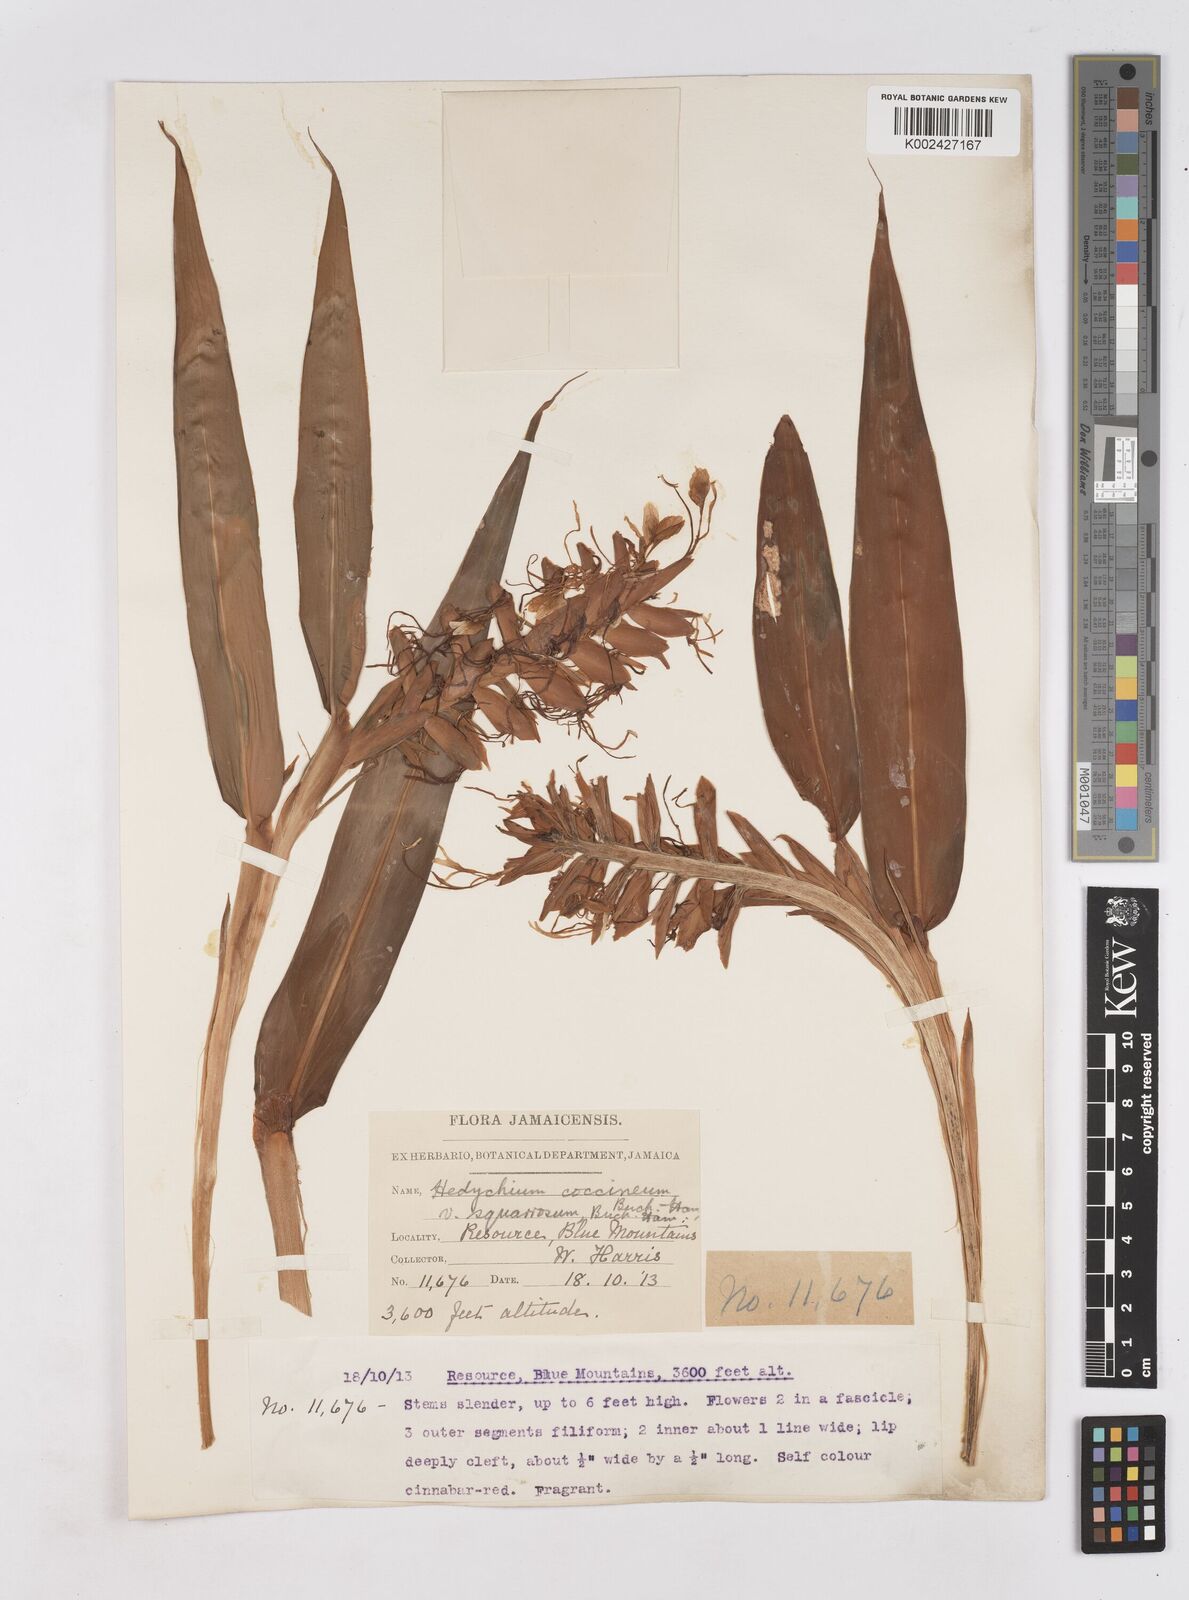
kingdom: Plantae
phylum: Tracheophyta
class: Liliopsida
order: Zingiberales
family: Zingiberaceae
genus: Hedychium
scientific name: Hedychium coccineum
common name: Red ginger-lily
